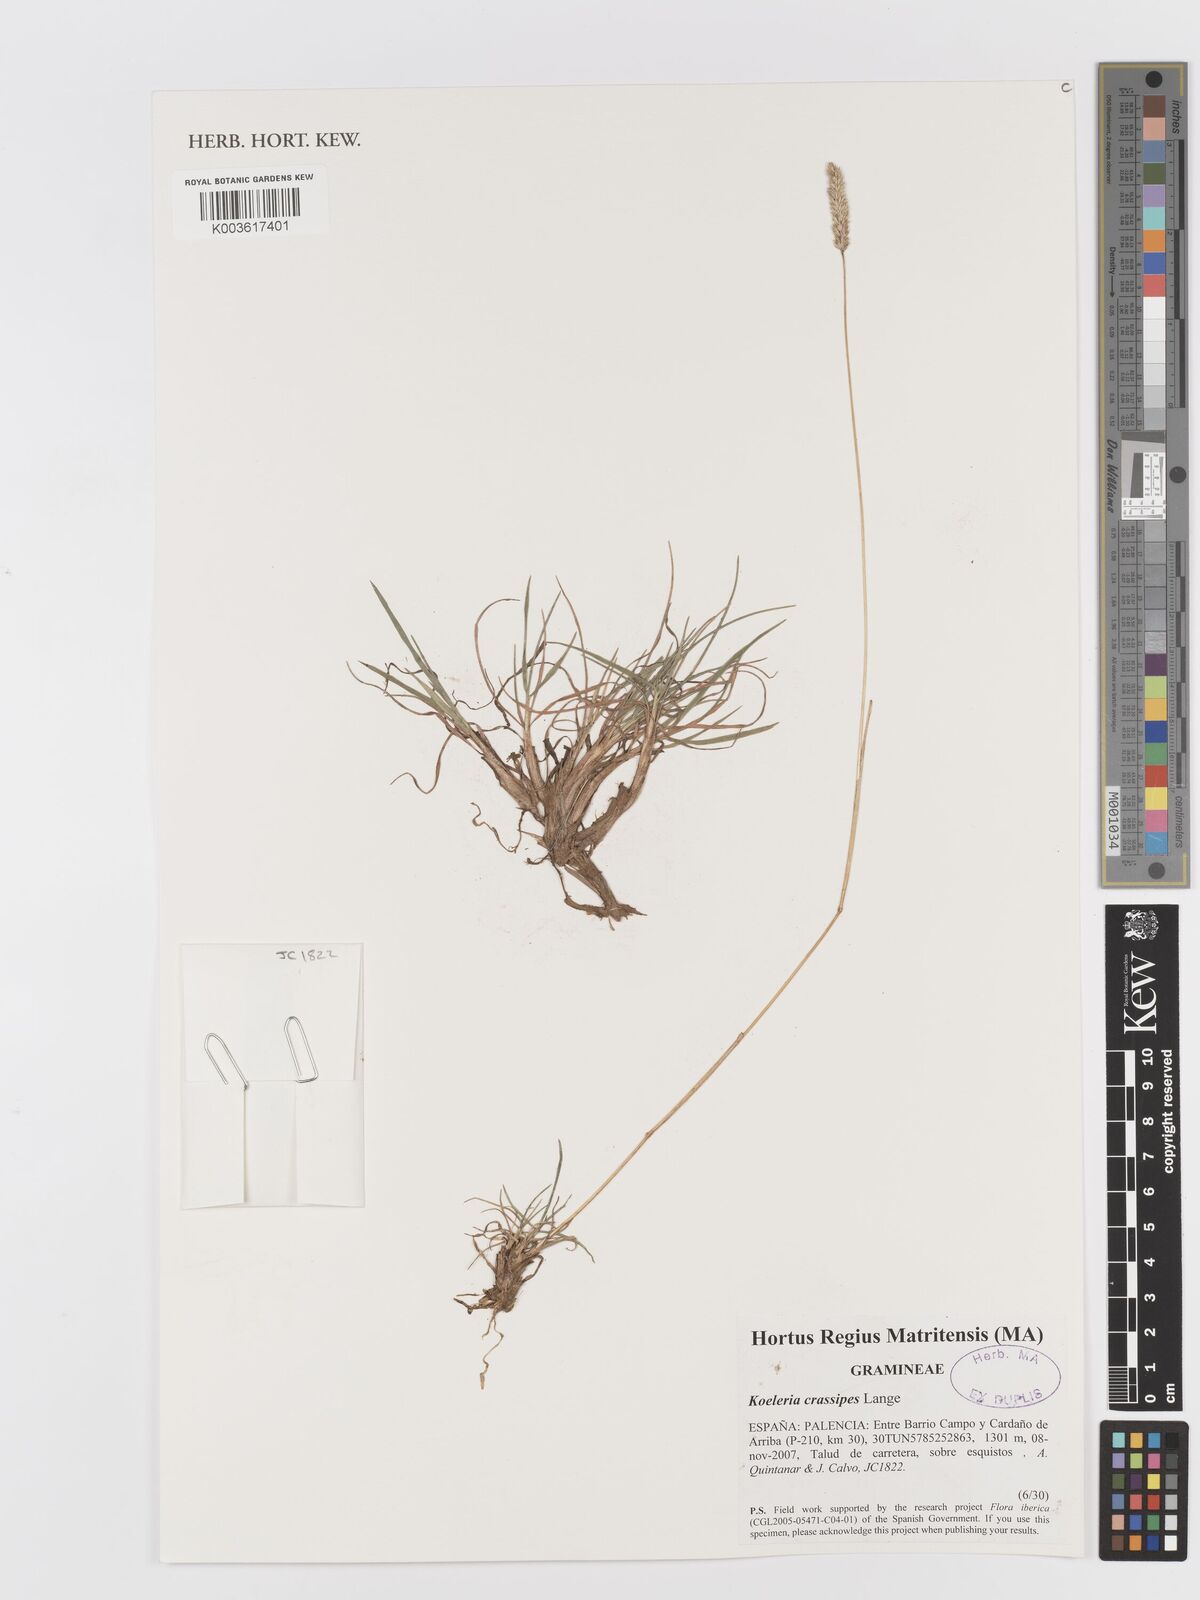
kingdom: Plantae
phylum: Tracheophyta
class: Liliopsida
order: Poales
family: Poaceae
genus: Koeleria
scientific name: Koeleria crassipes
